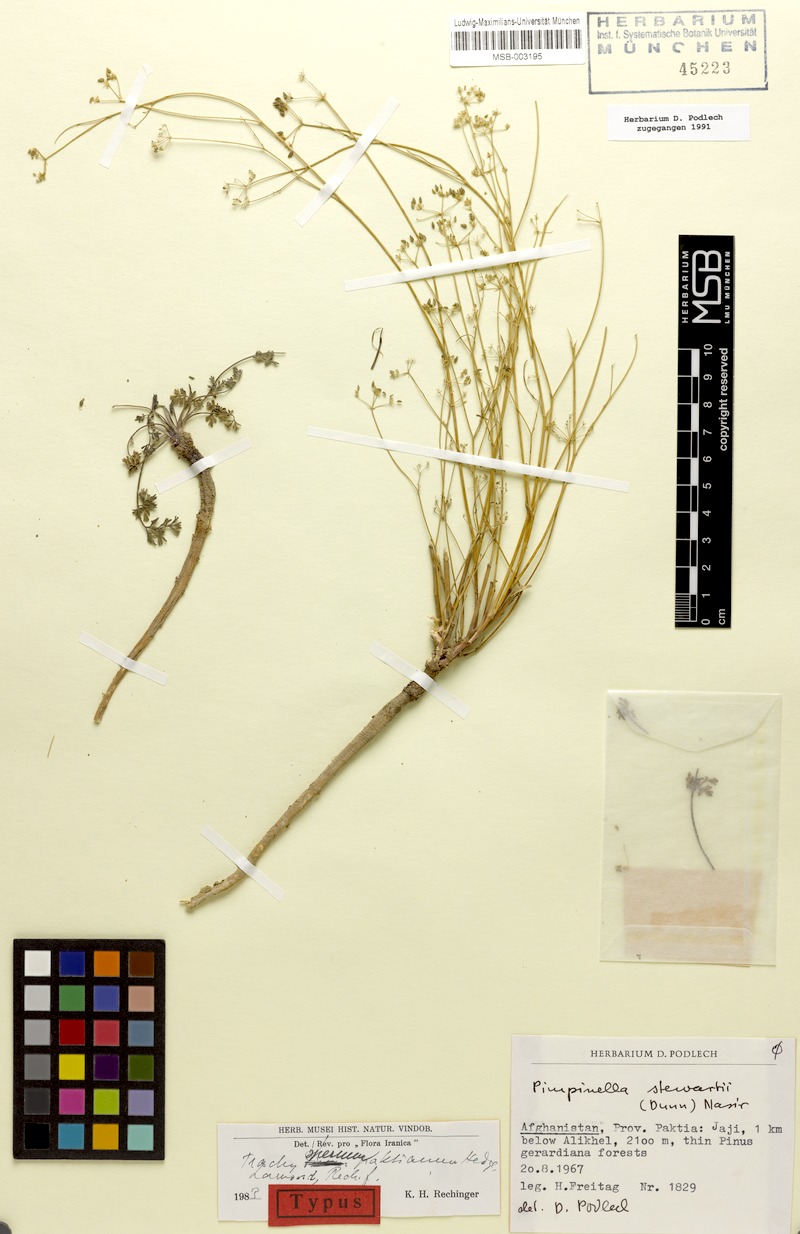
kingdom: Plantae
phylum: Tracheophyta
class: Magnoliopsida
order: Apiales
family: Apiaceae
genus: Psammogeton
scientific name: Psammogeton paktianum
